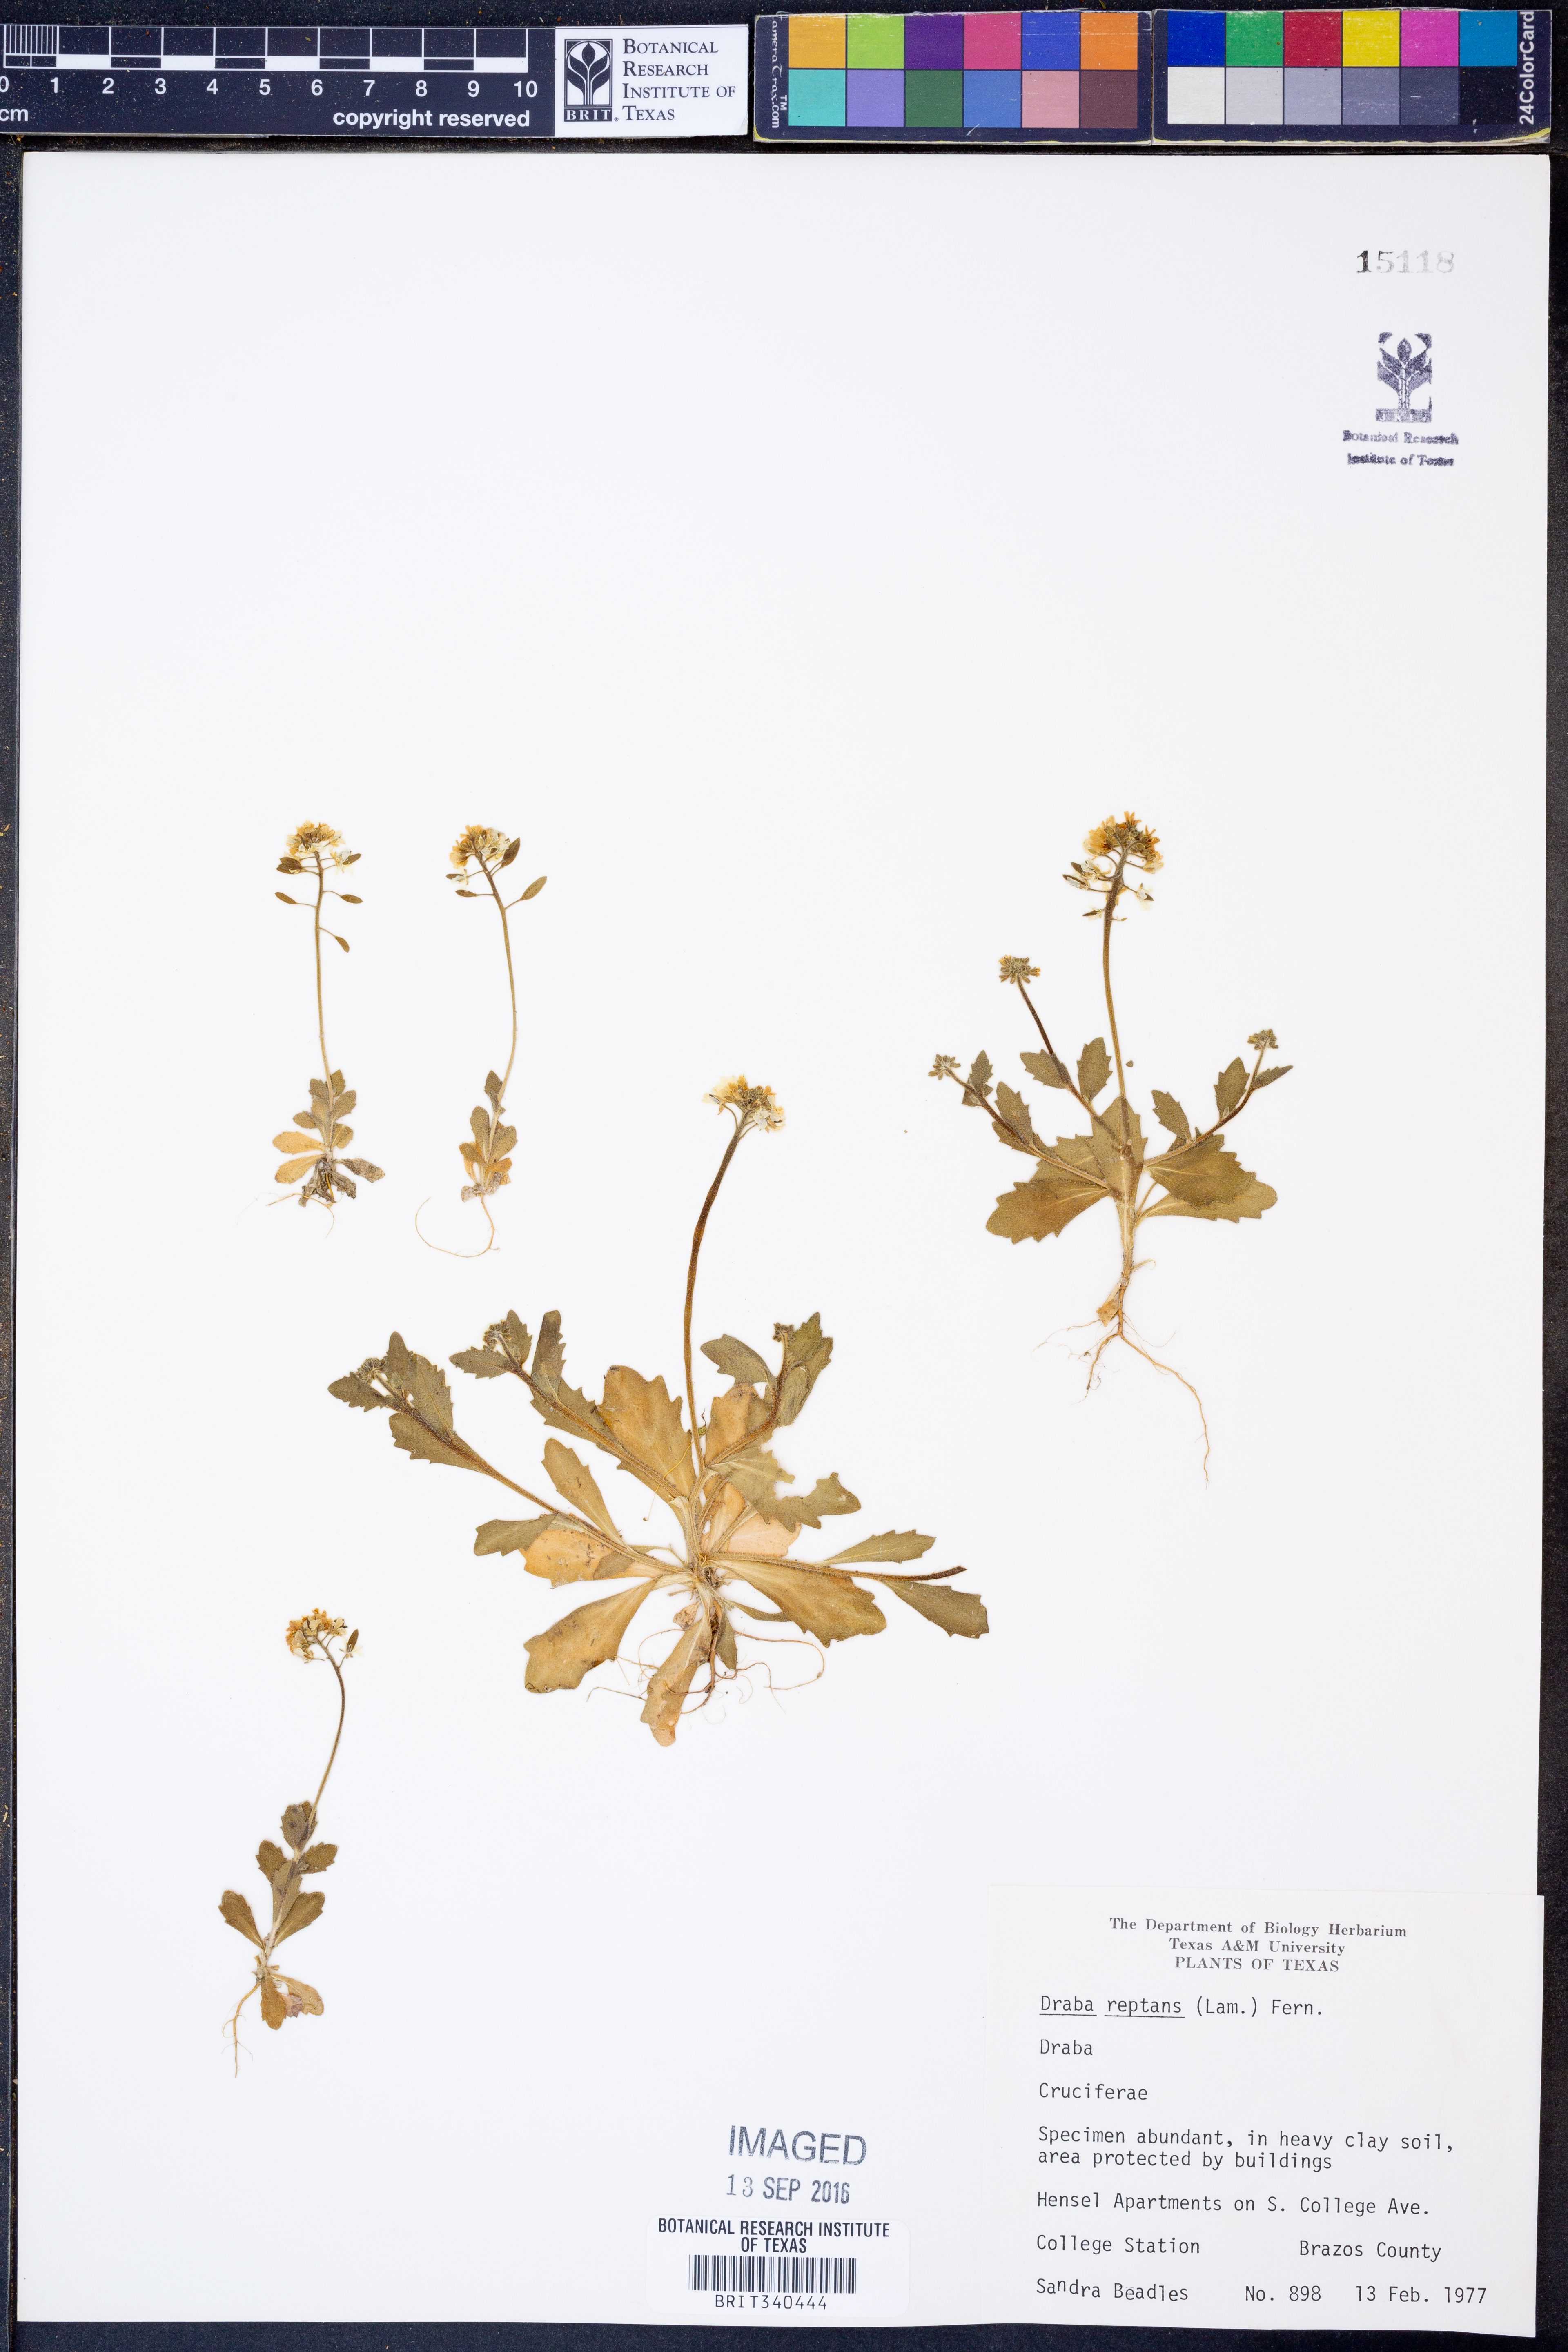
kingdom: Plantae
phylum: Tracheophyta
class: Magnoliopsida
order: Brassicales
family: Brassicaceae
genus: Tomostima
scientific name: Tomostima reptans
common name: Carolina draba
